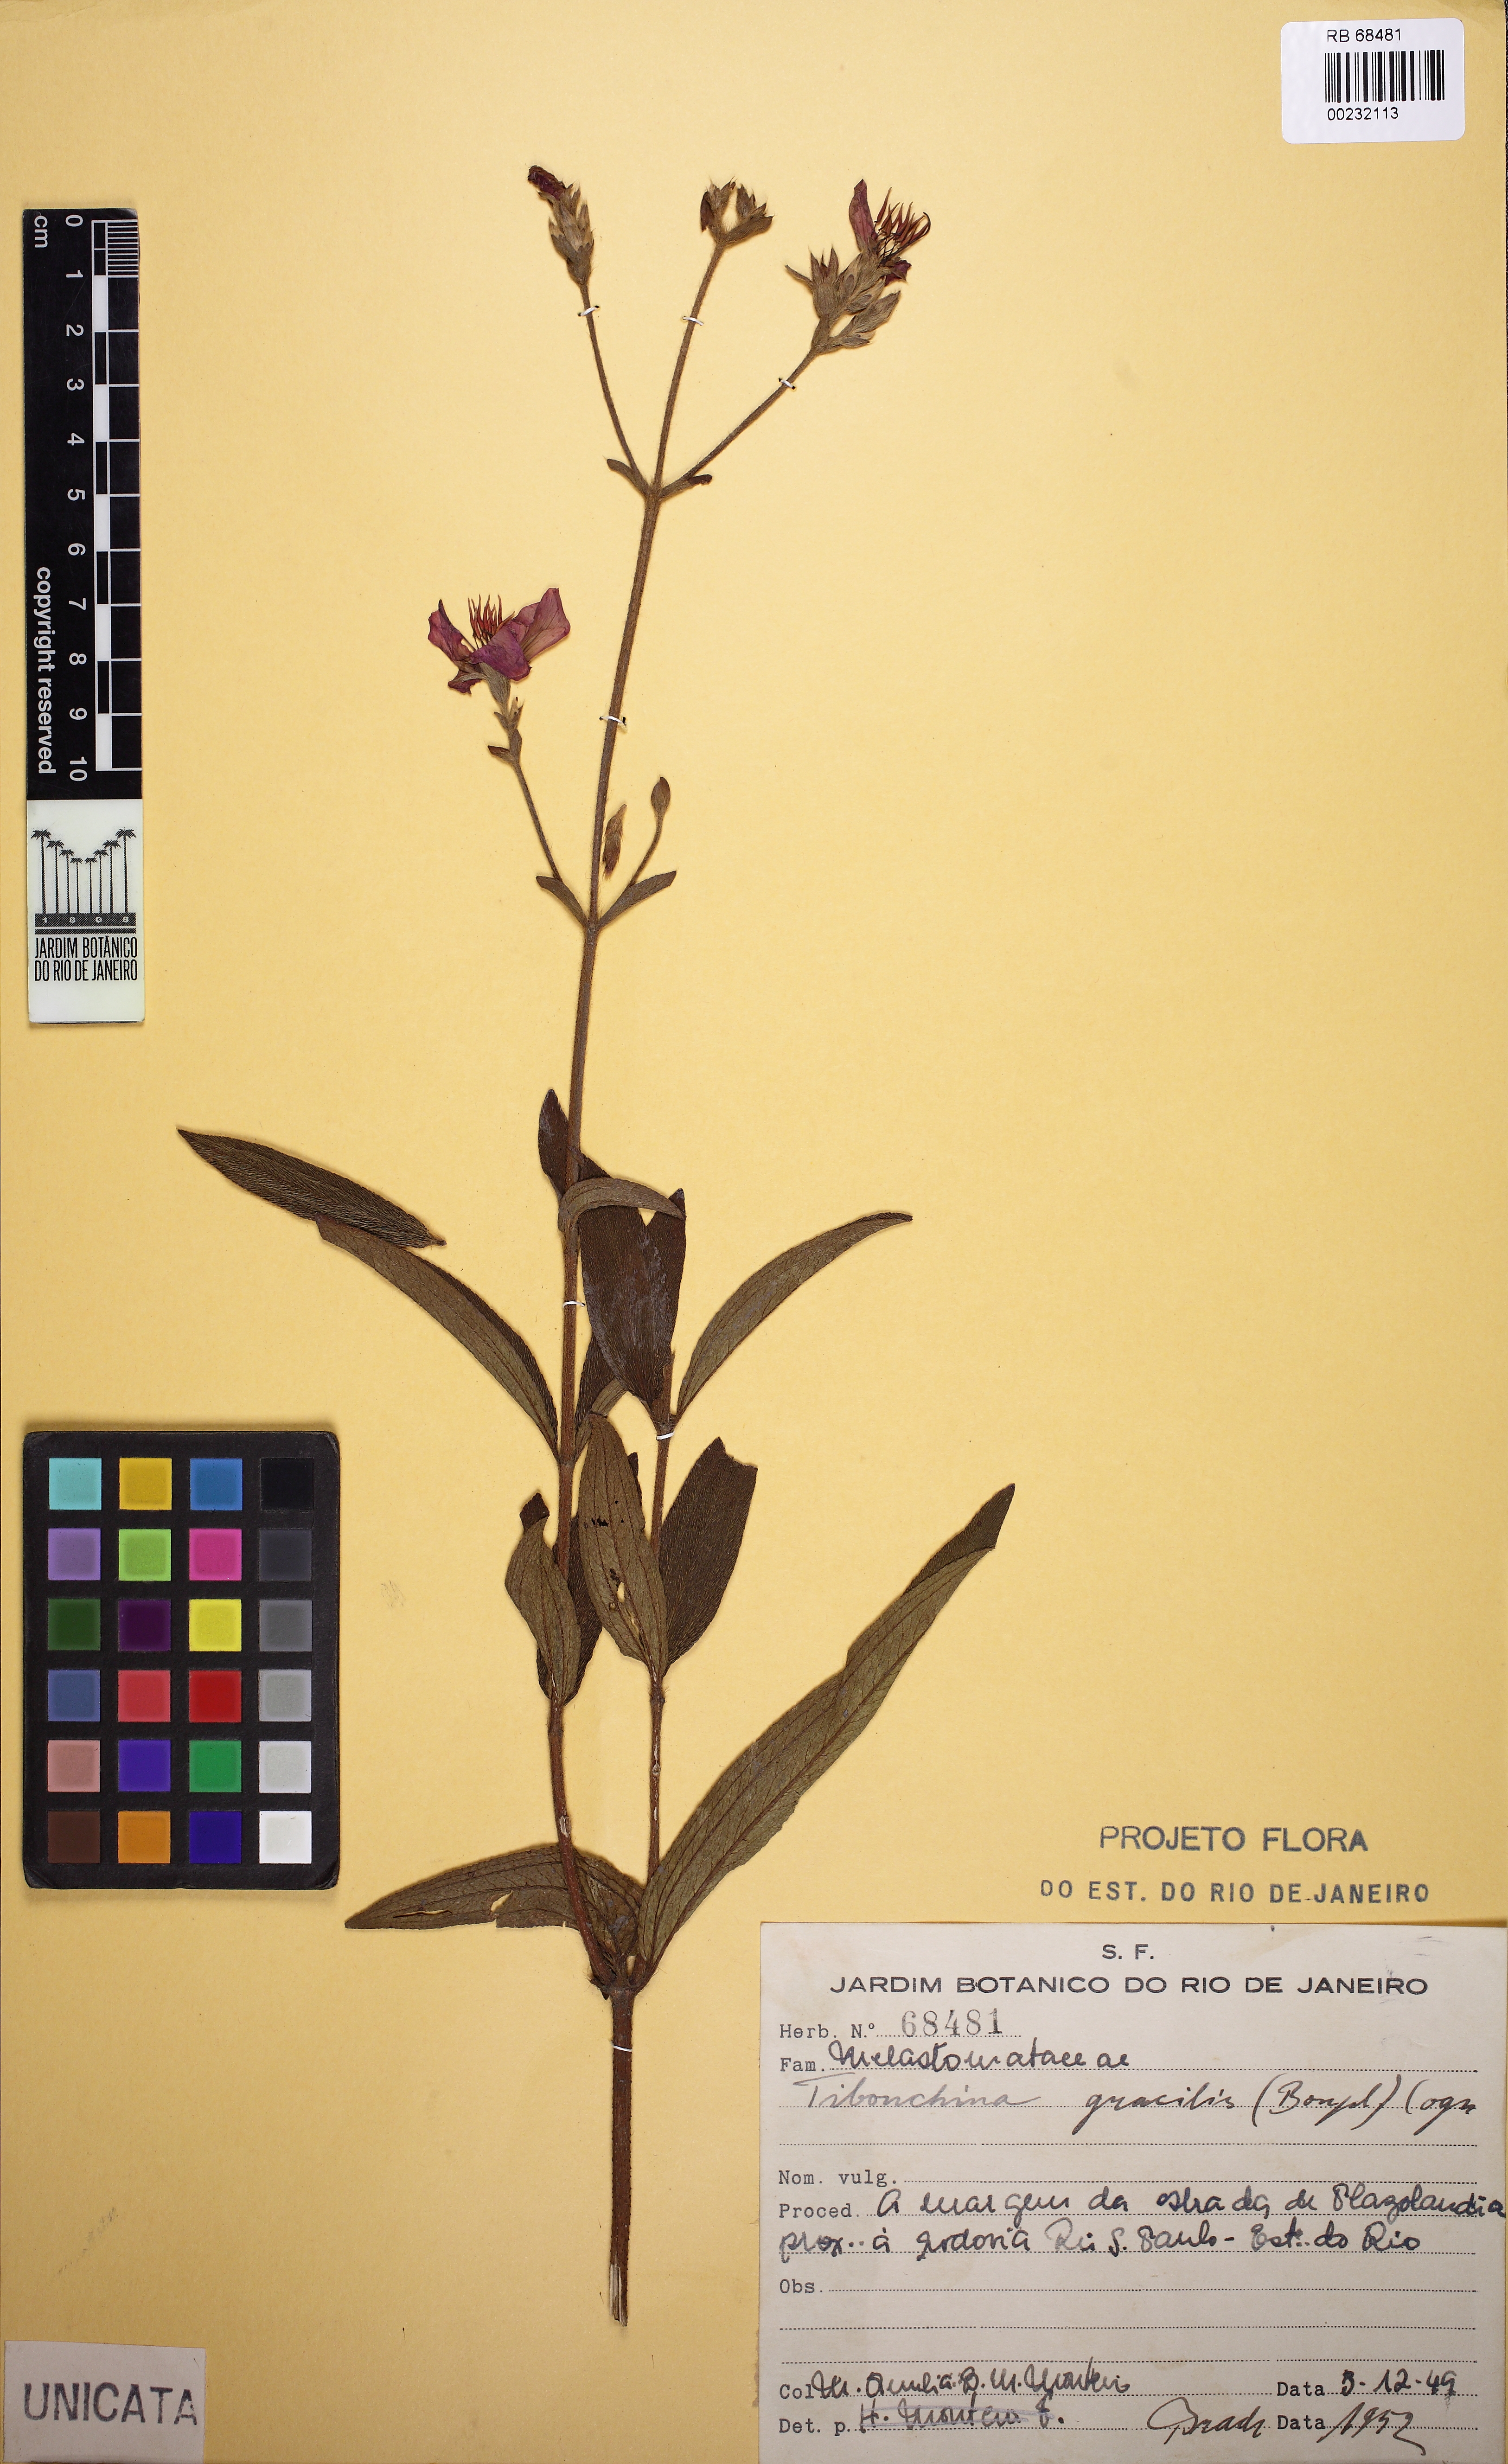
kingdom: Plantae
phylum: Tracheophyta
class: Magnoliopsida
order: Myrtales
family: Melastomataceae
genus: Chaetogastra
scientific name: Chaetogastra gracilis
